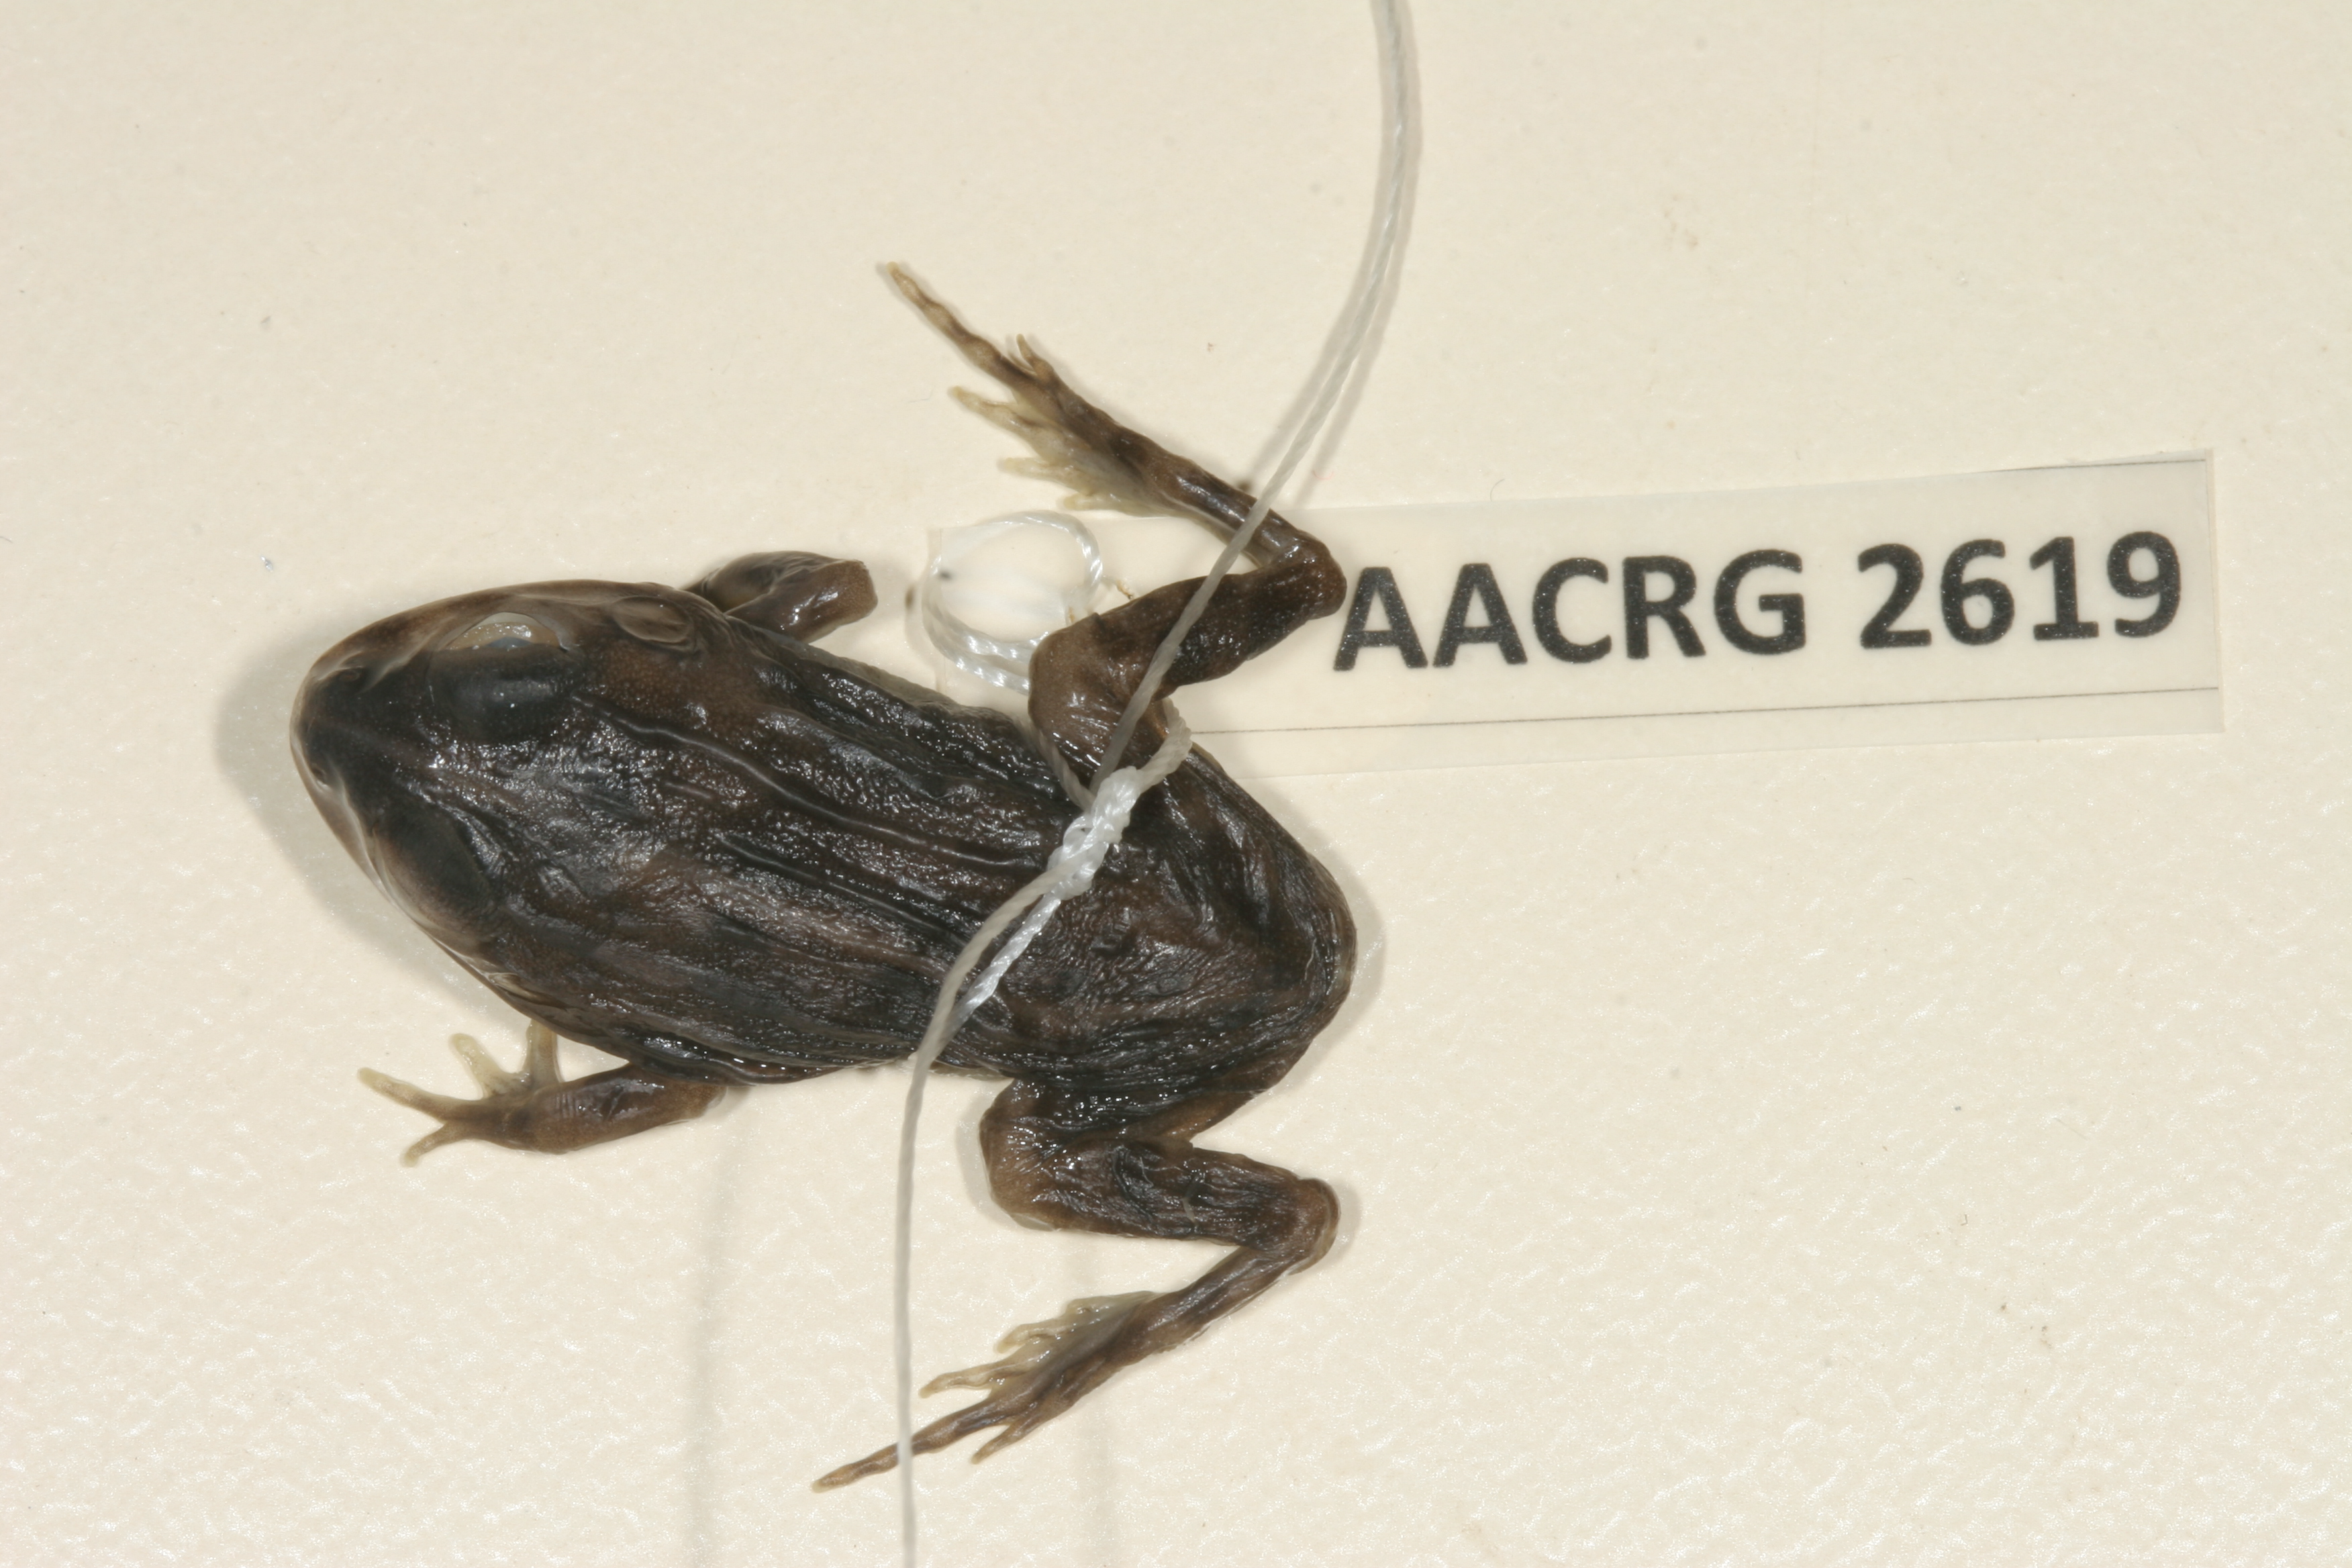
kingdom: Animalia
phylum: Chordata
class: Amphibia
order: Anura
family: Pyxicephalidae
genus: Pyxicephalus
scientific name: Pyxicephalus edulis
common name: Peter's bullfrog
